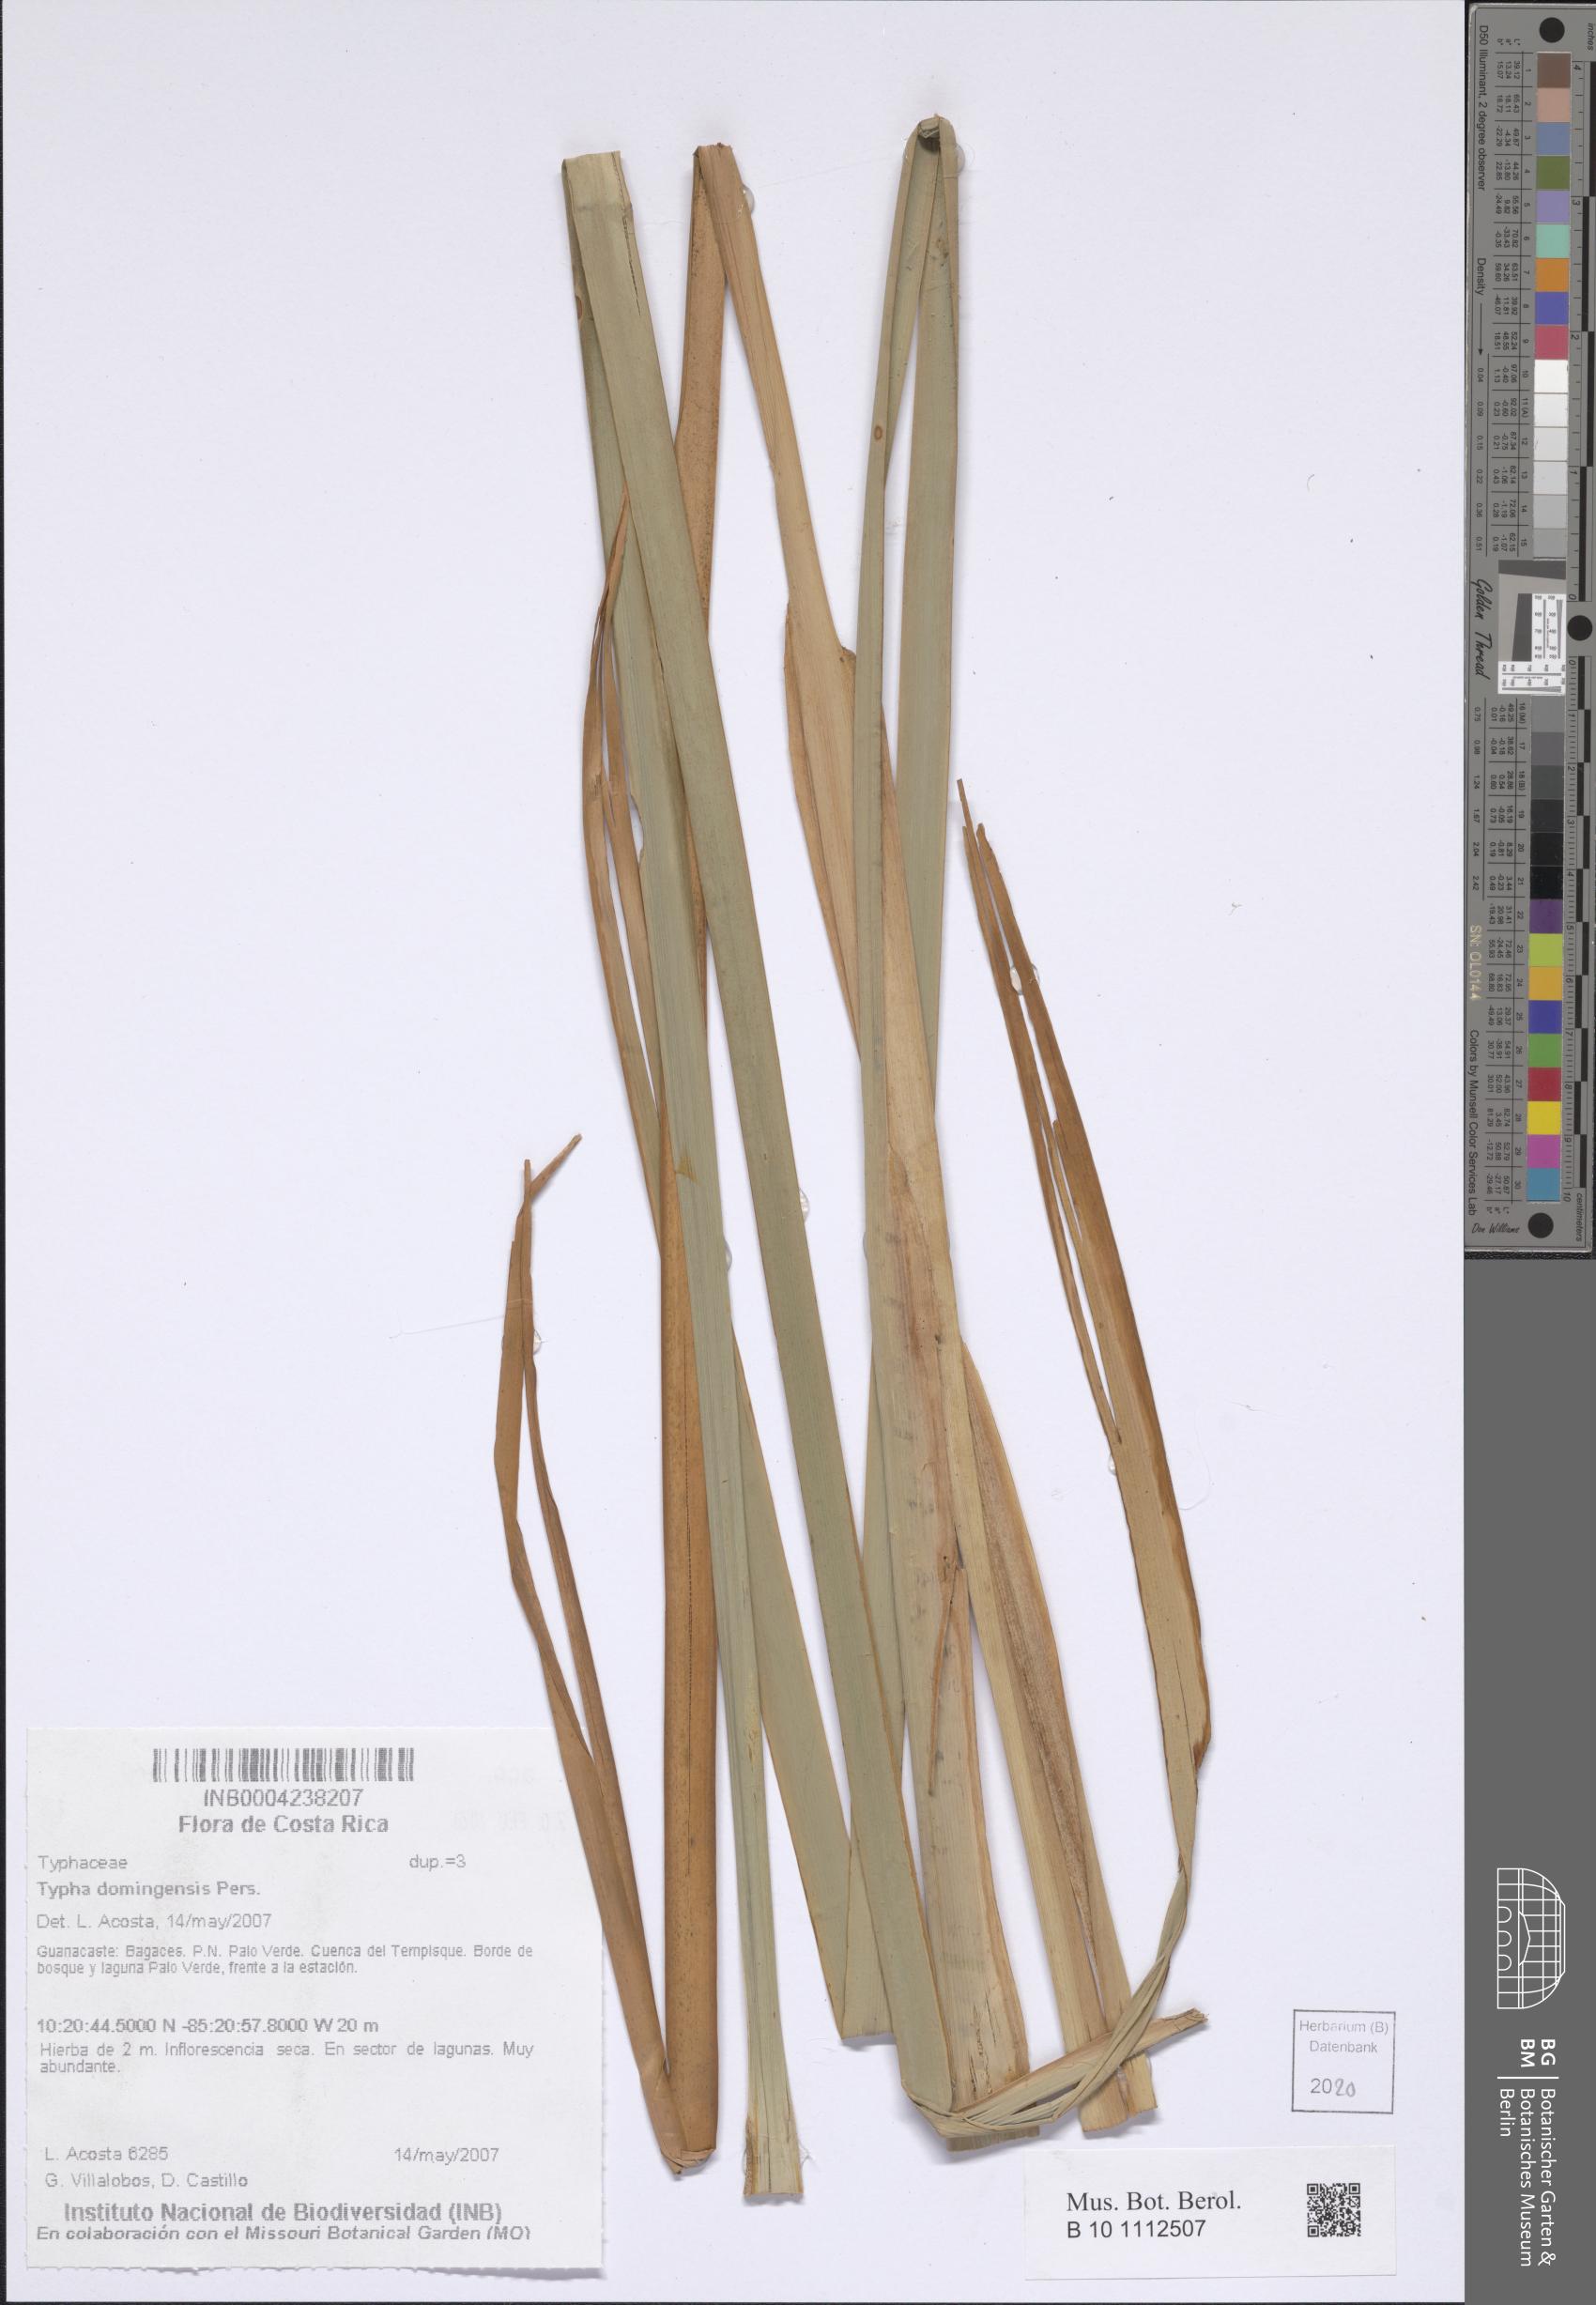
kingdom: Plantae
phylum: Tracheophyta
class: Liliopsida
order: Poales
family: Typhaceae
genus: Typha
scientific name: Typha domingensis
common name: Southern cattail
